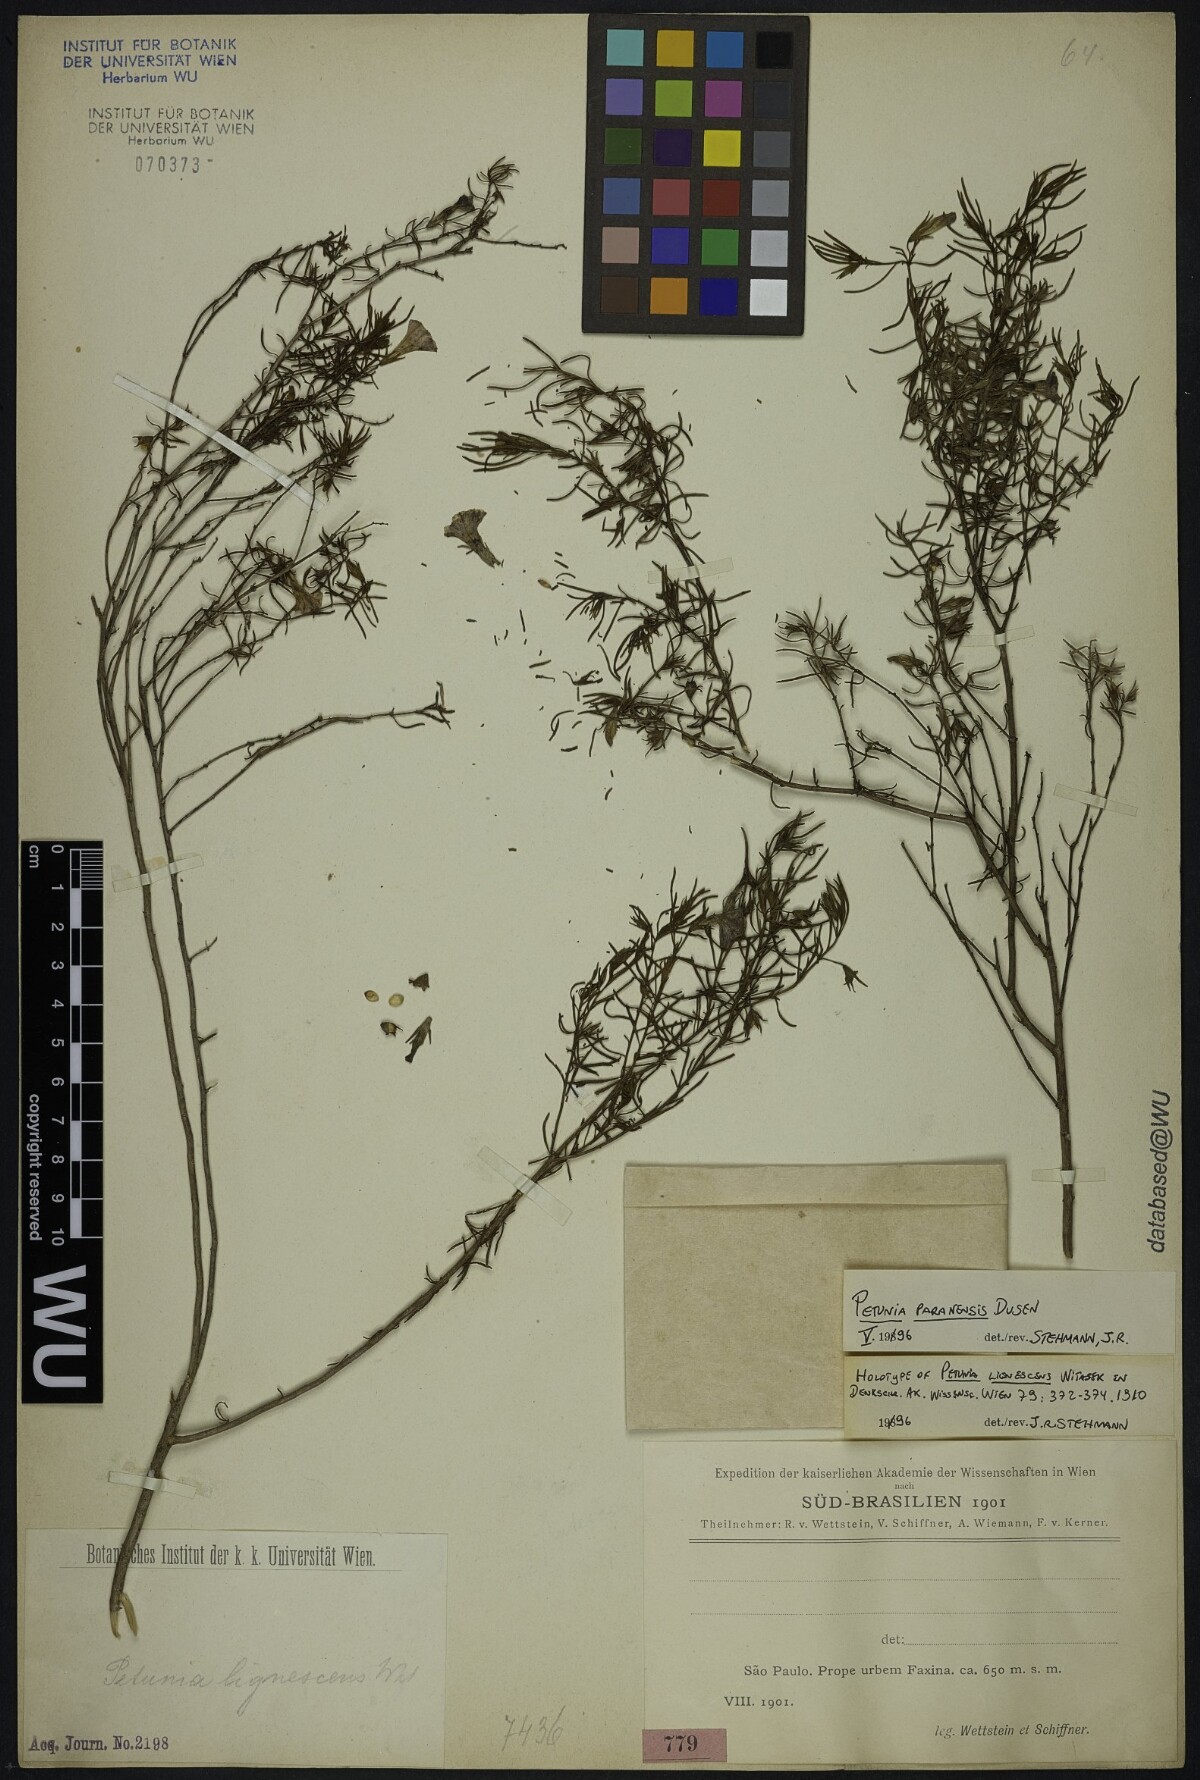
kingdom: Plantae
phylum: Tracheophyta
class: Magnoliopsida
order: Solanales
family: Solanaceae
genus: Calibrachoa
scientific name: Calibrachoa paranensis
